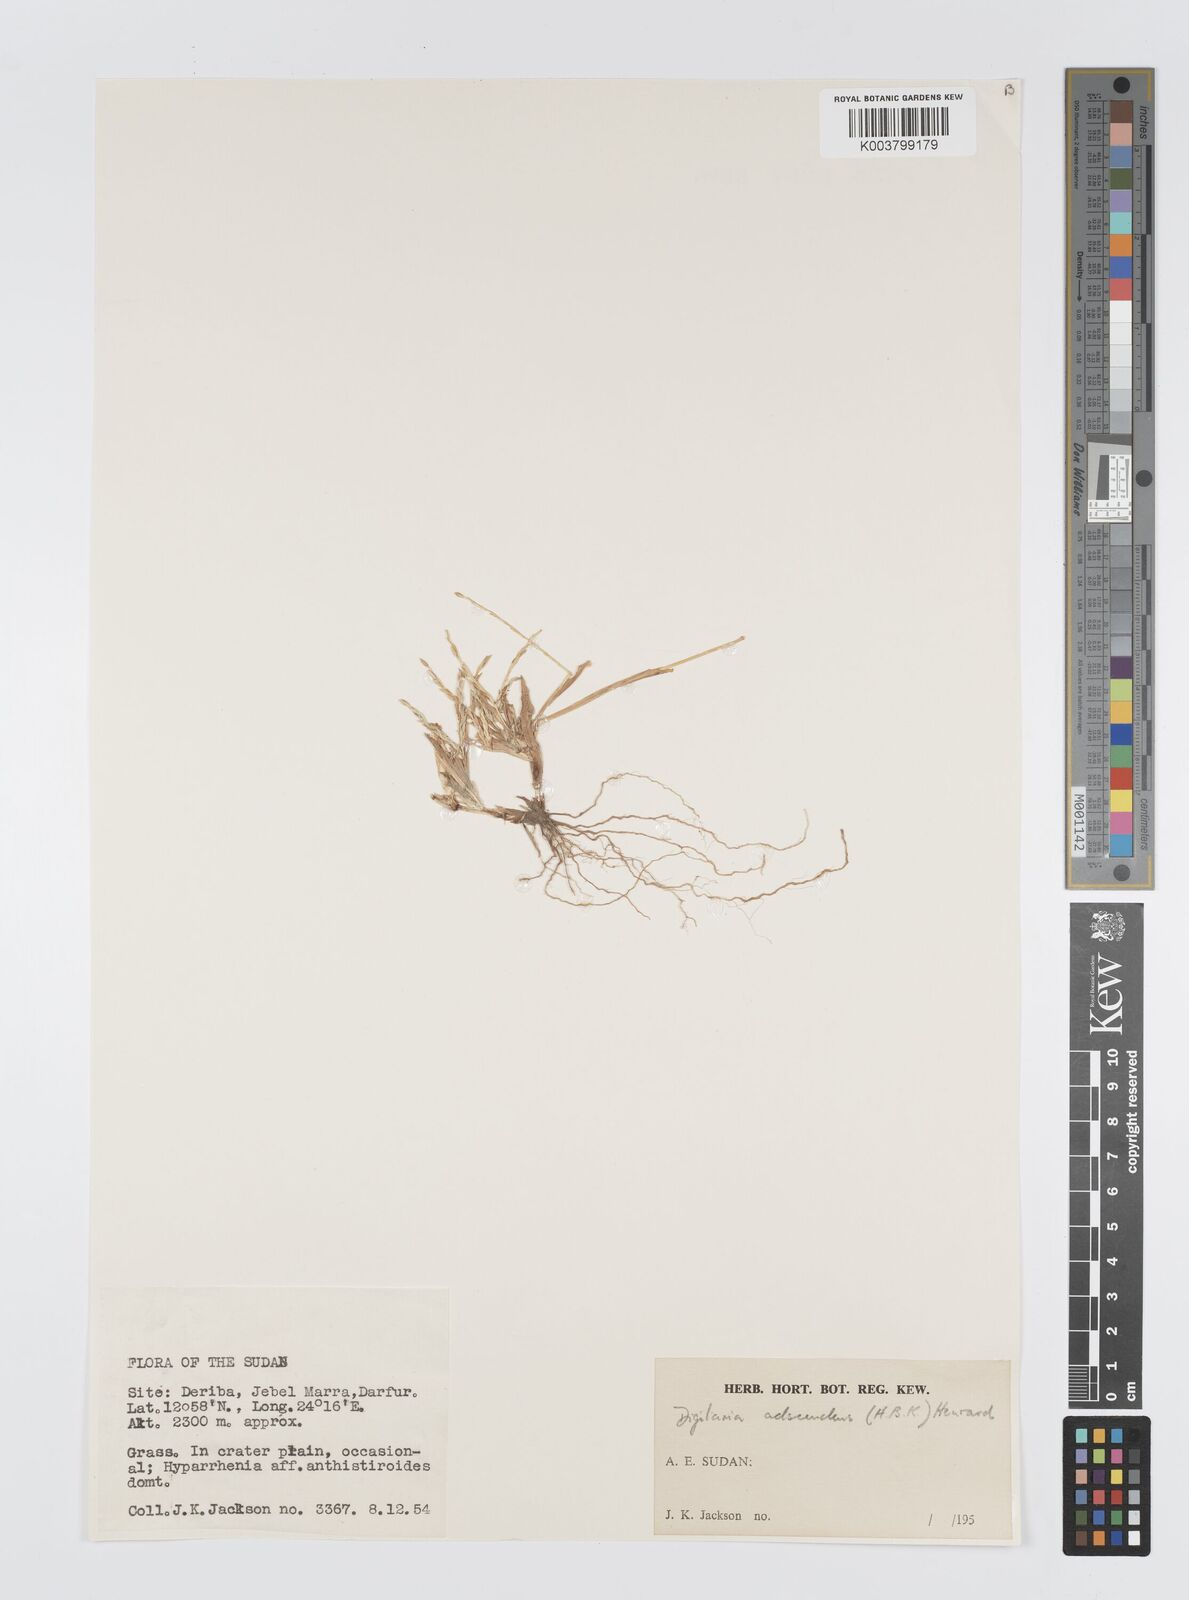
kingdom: Plantae
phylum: Tracheophyta
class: Liliopsida
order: Poales
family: Poaceae
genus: Digitaria
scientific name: Digitaria sanguinalis
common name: Hairy crabgrass
